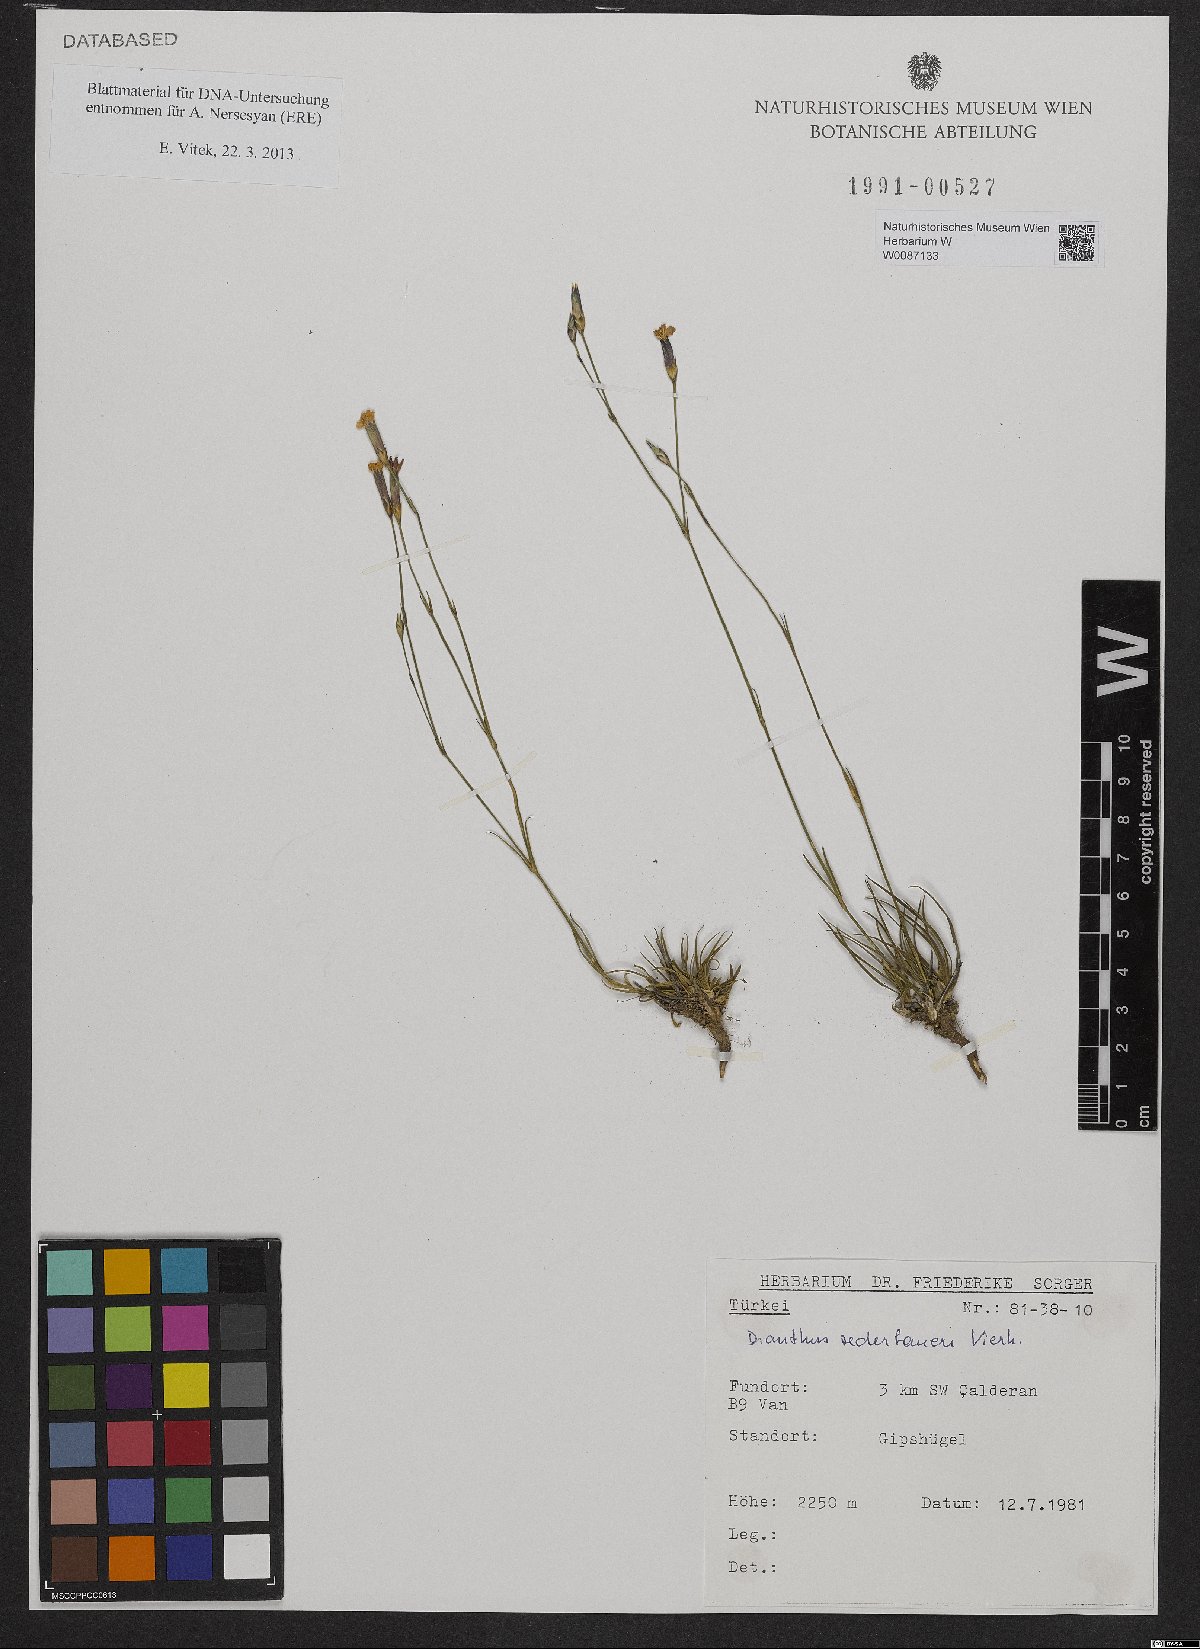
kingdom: Plantae
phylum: Tracheophyta
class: Magnoliopsida
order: Caryophyllales
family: Caryophyllaceae
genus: Dianthus
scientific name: Dianthus zederbaueri
